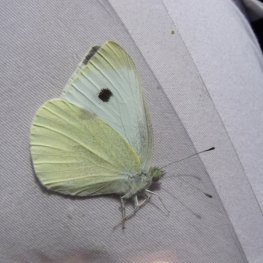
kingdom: Animalia
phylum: Arthropoda
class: Insecta
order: Lepidoptera
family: Pieridae
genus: Pieris
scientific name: Pieris rapae
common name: Cabbage White
